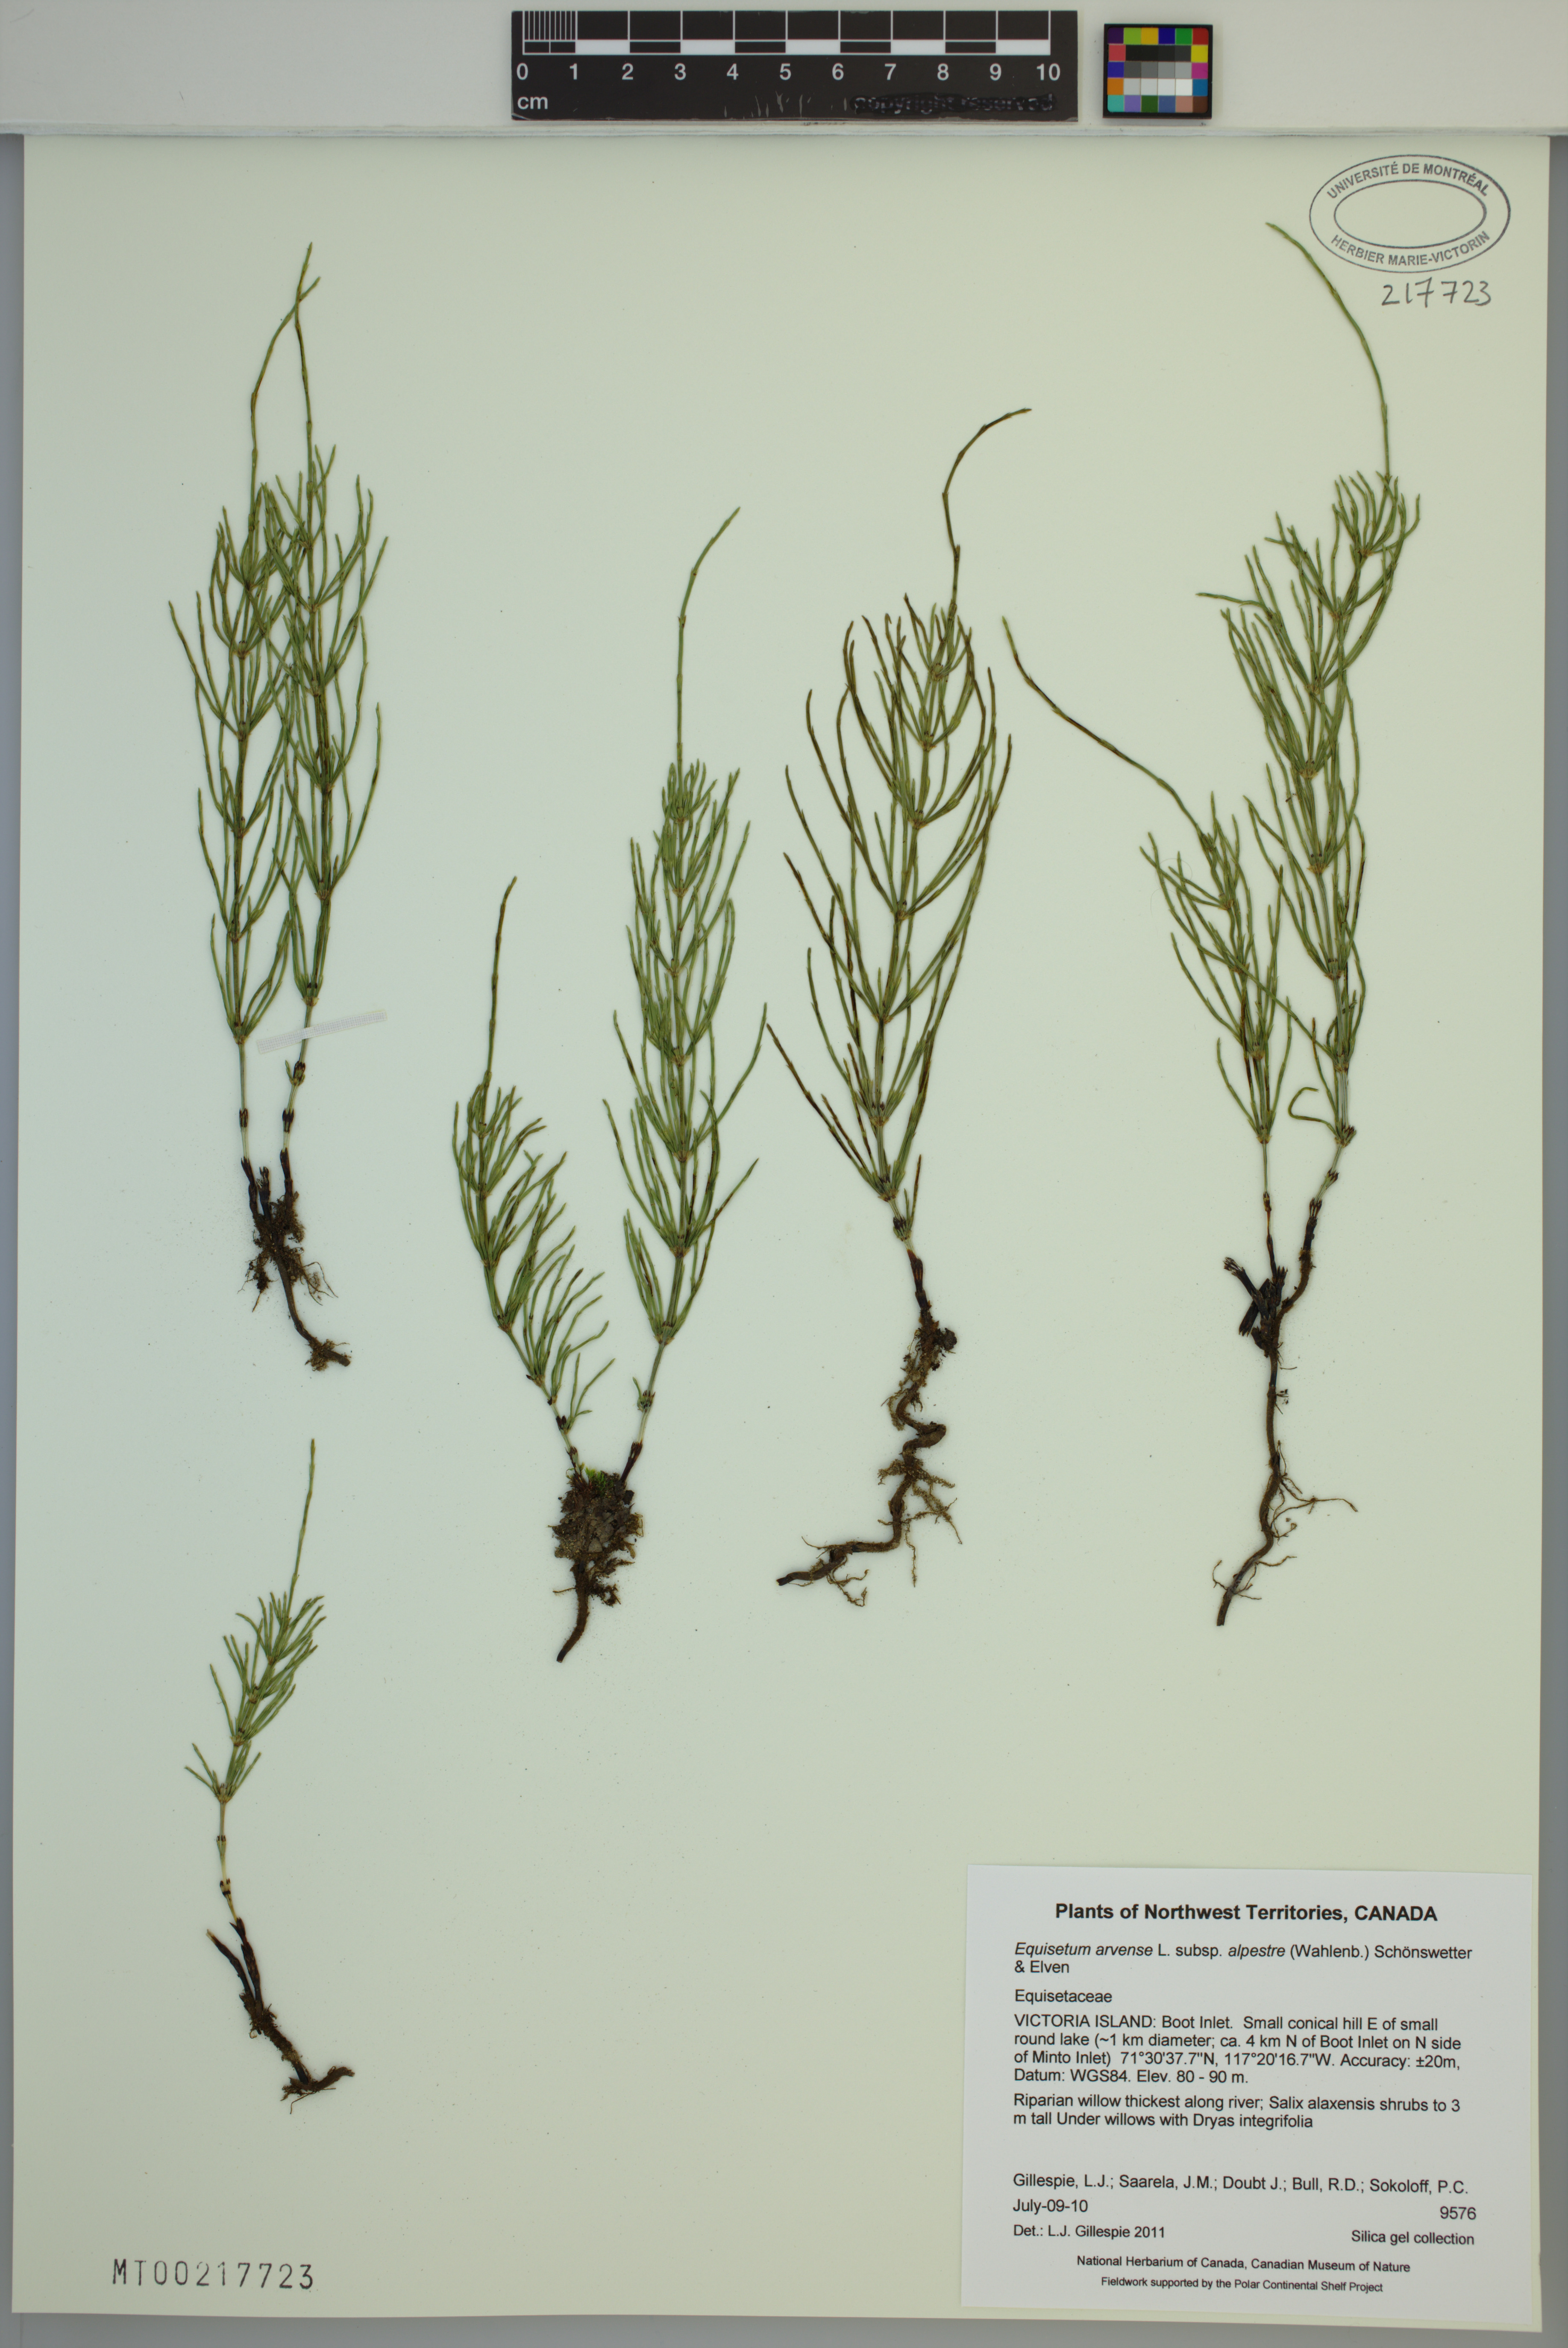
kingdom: Plantae
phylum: Tracheophyta
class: Polypodiopsida
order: Equisetales
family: Equisetaceae
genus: Equisetum
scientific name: Equisetum arvense
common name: Field horsetail
